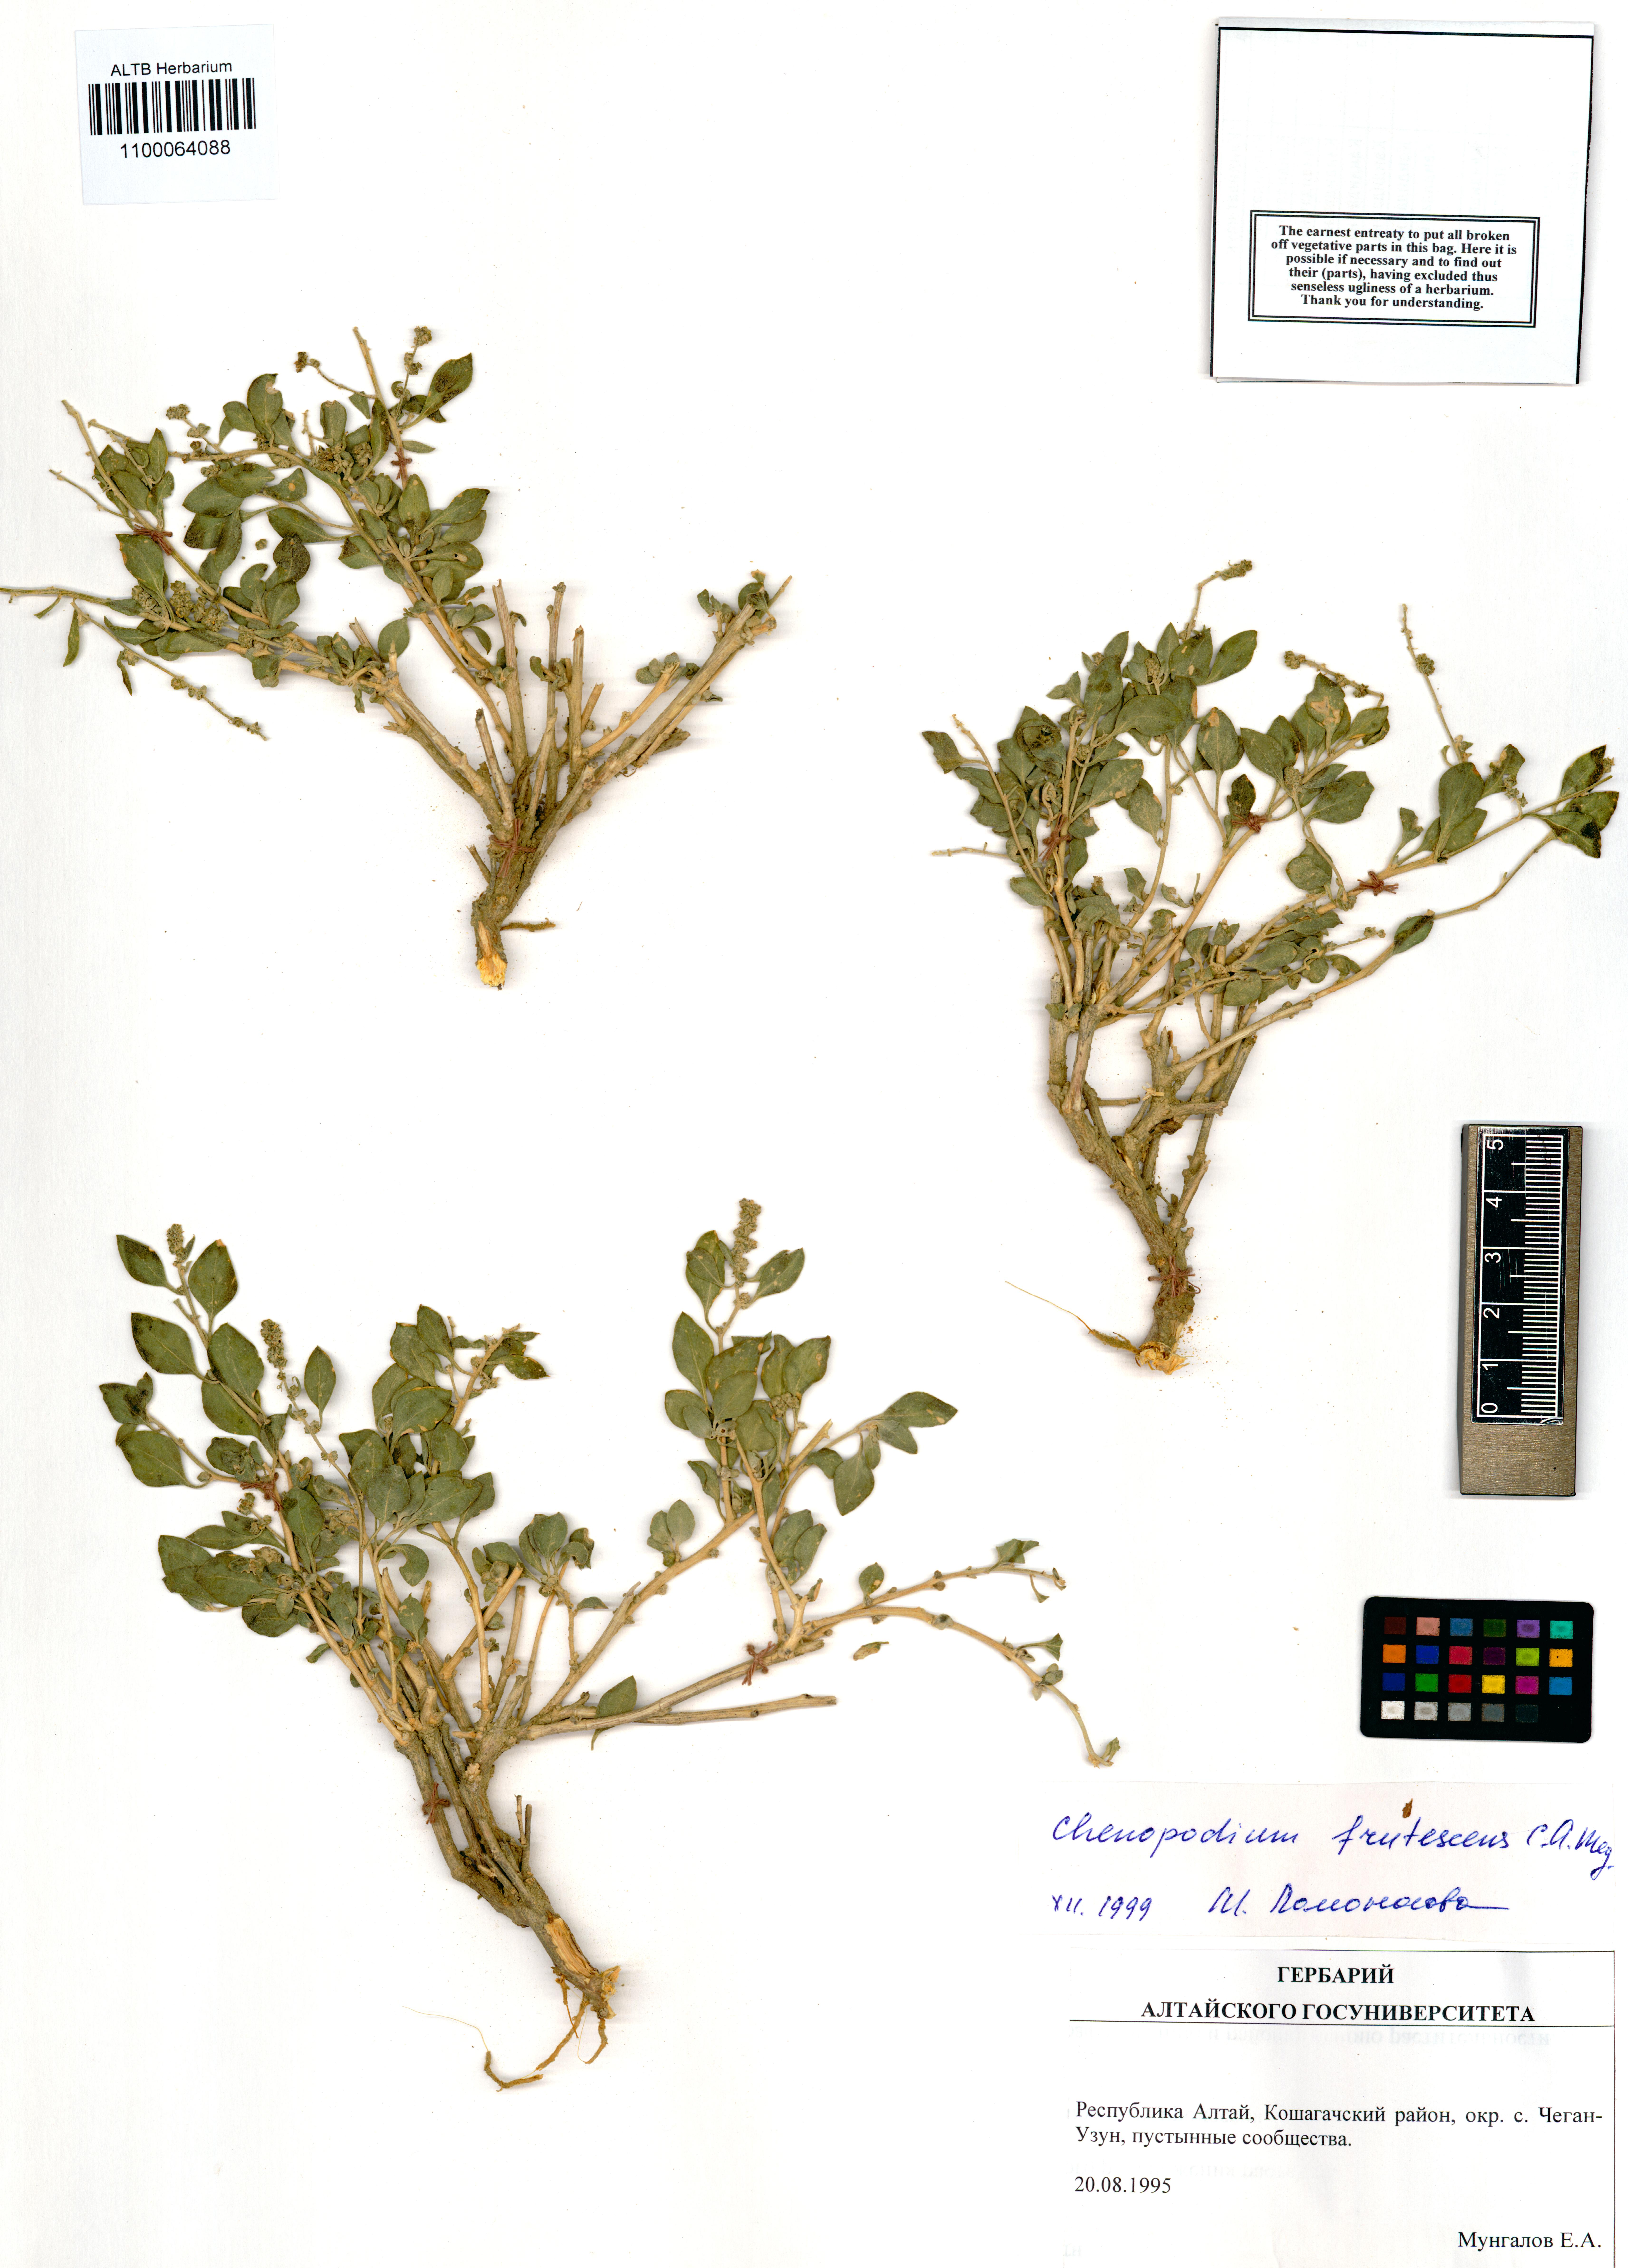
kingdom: Plantae
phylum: Tracheophyta
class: Magnoliopsida
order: Caryophyllales
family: Amaranthaceae
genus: Chenopodium
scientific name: Chenopodium frutescens
